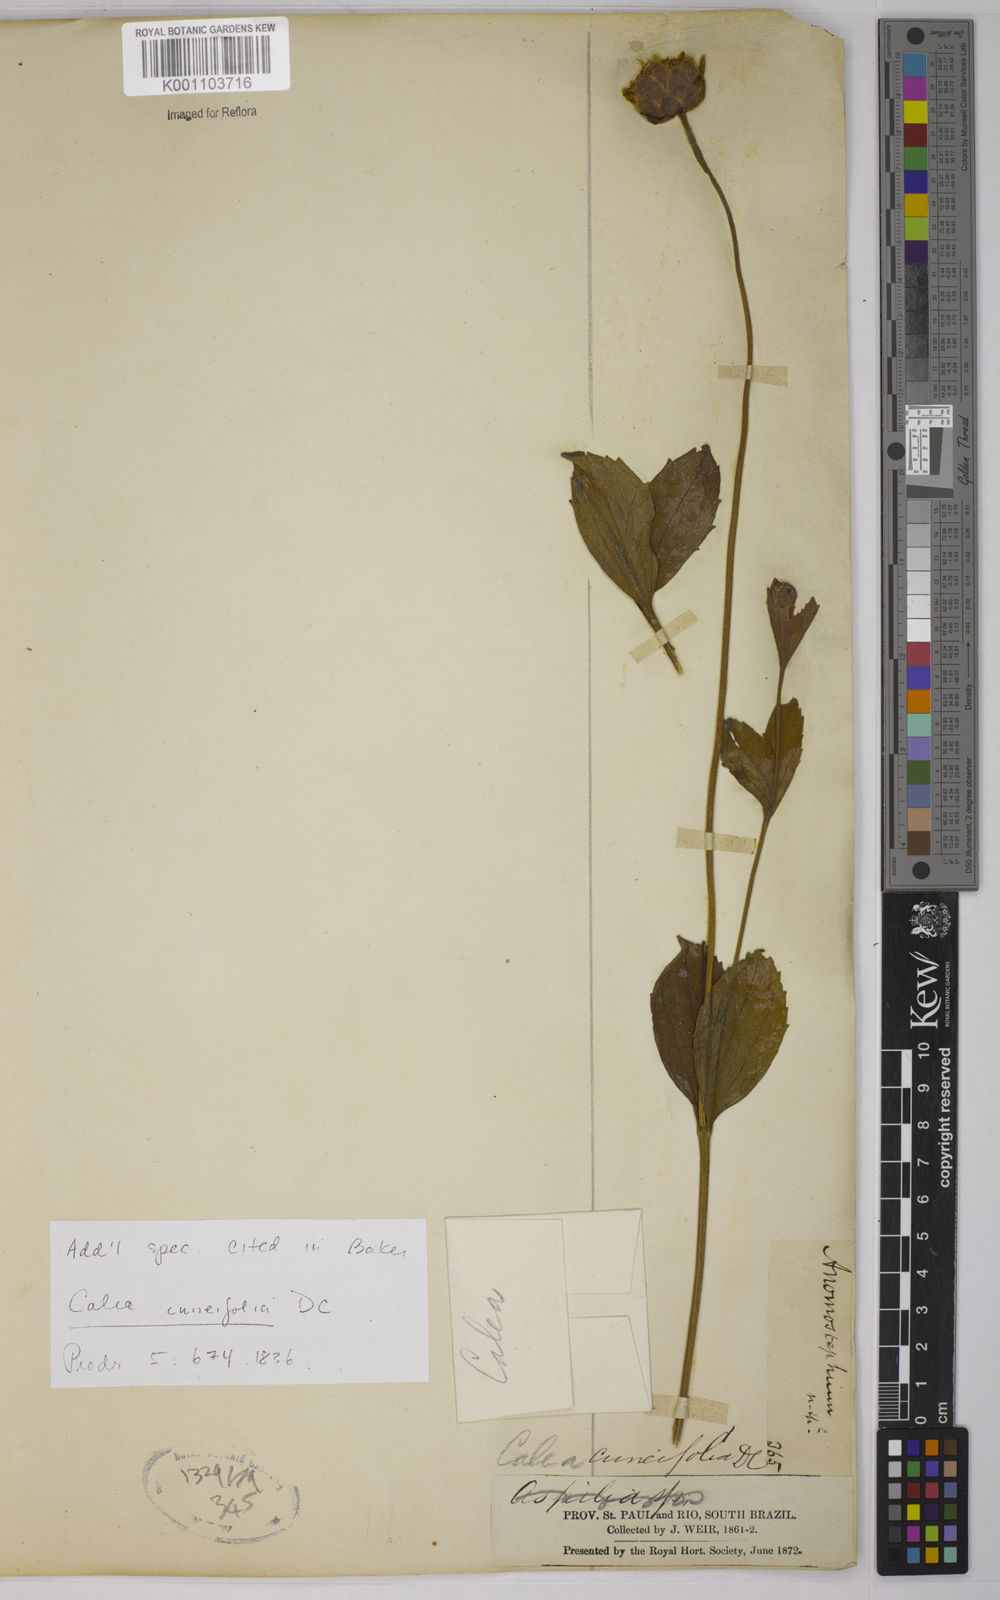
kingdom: Plantae
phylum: Tracheophyta
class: Magnoliopsida
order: Asterales
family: Asteraceae
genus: Calea
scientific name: Calea cuneifolia
